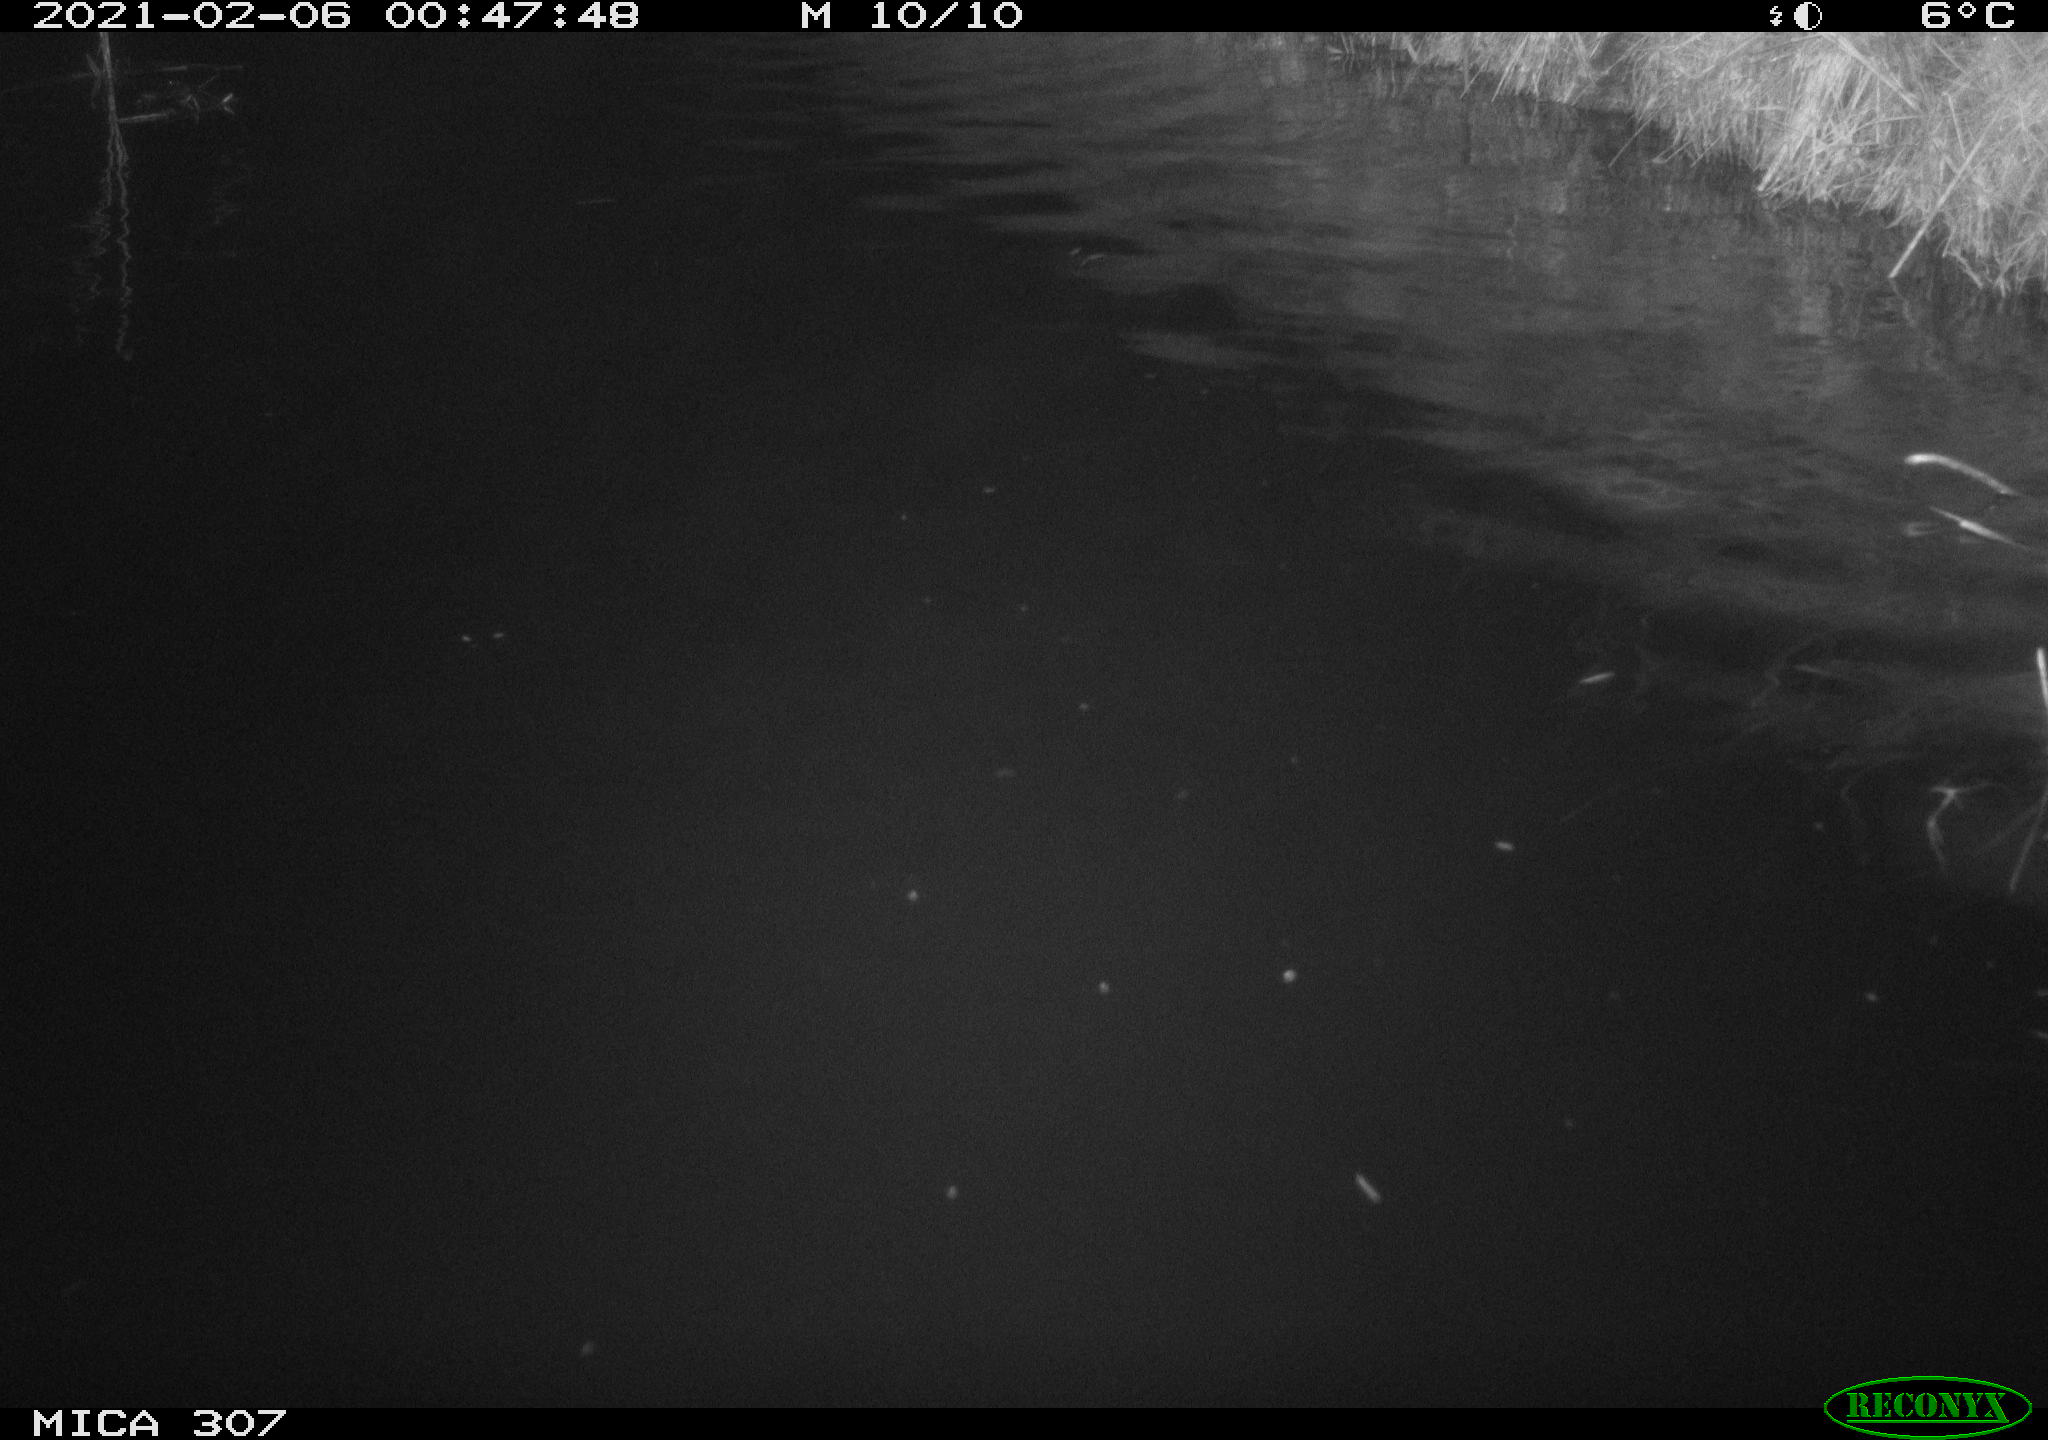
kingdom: Animalia
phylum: Chordata
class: Mammalia
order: Rodentia
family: Cricetidae
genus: Ondatra
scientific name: Ondatra zibethicus
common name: Muskrat
